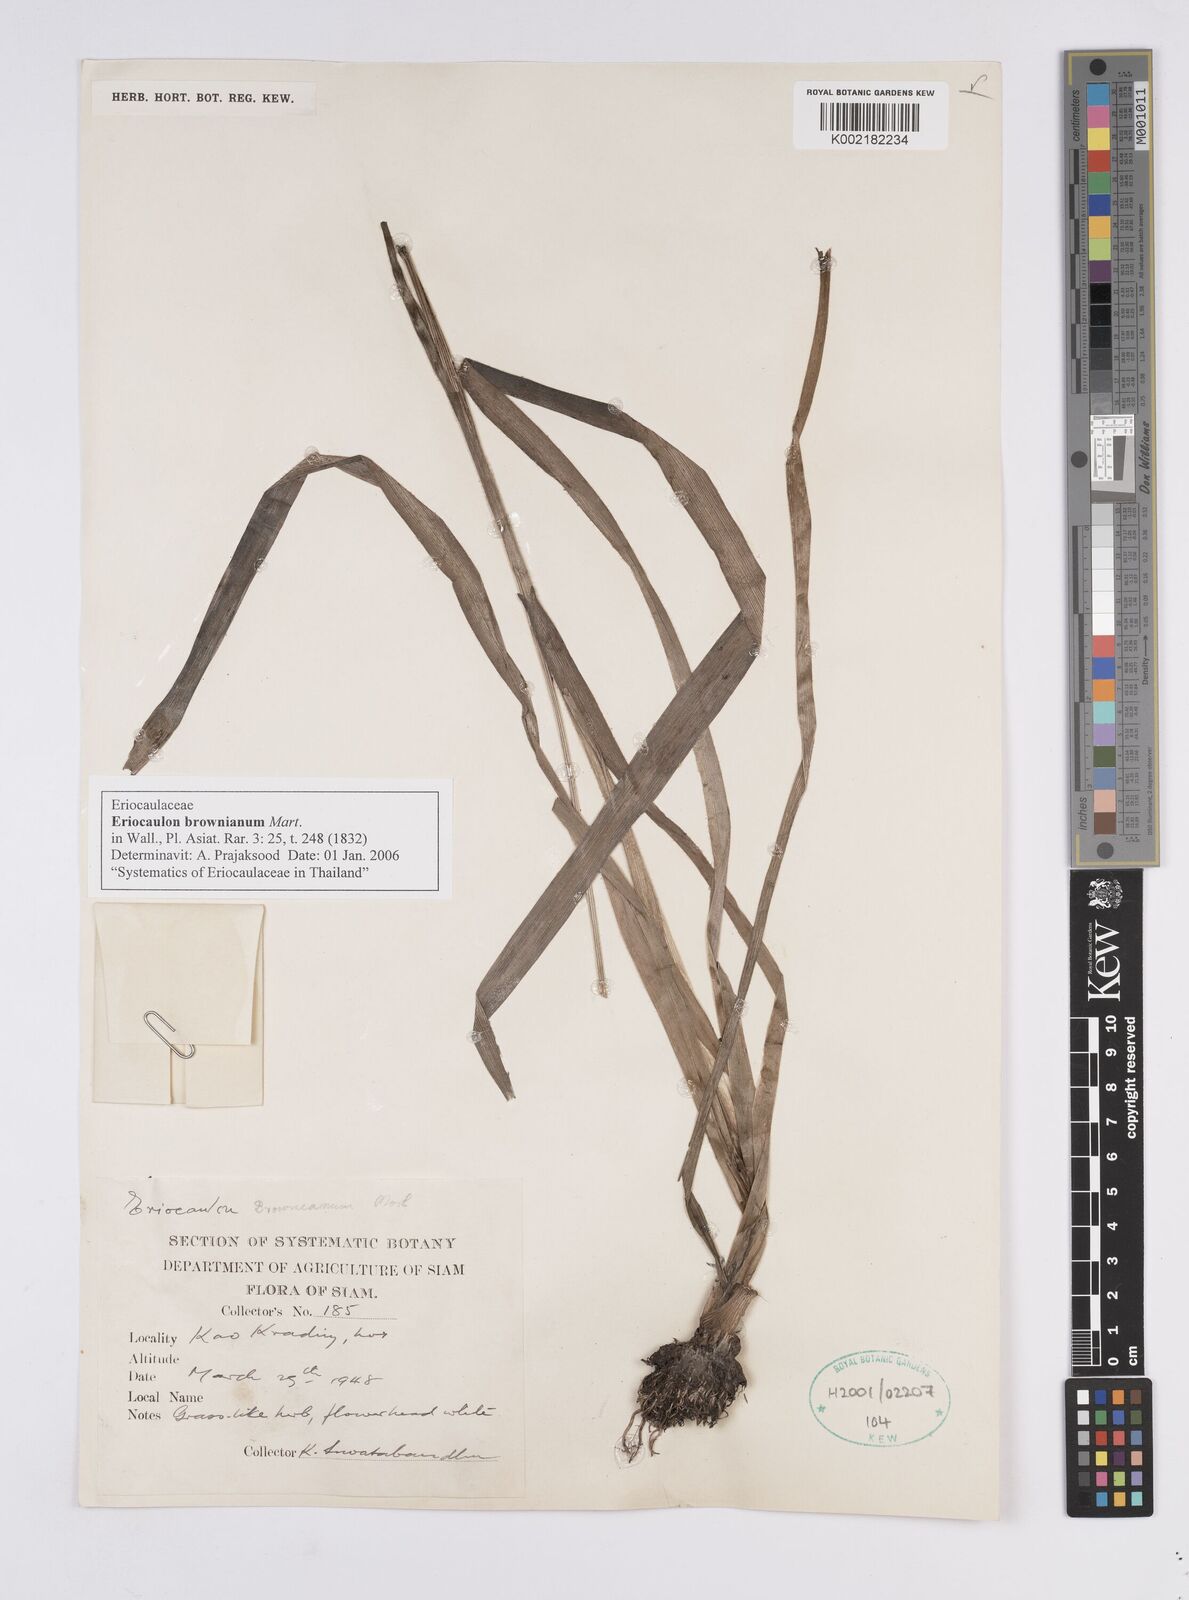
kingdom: Plantae
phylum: Tracheophyta
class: Liliopsida
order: Poales
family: Eriocaulaceae
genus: Eriocaulon
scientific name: Eriocaulon brownianum
